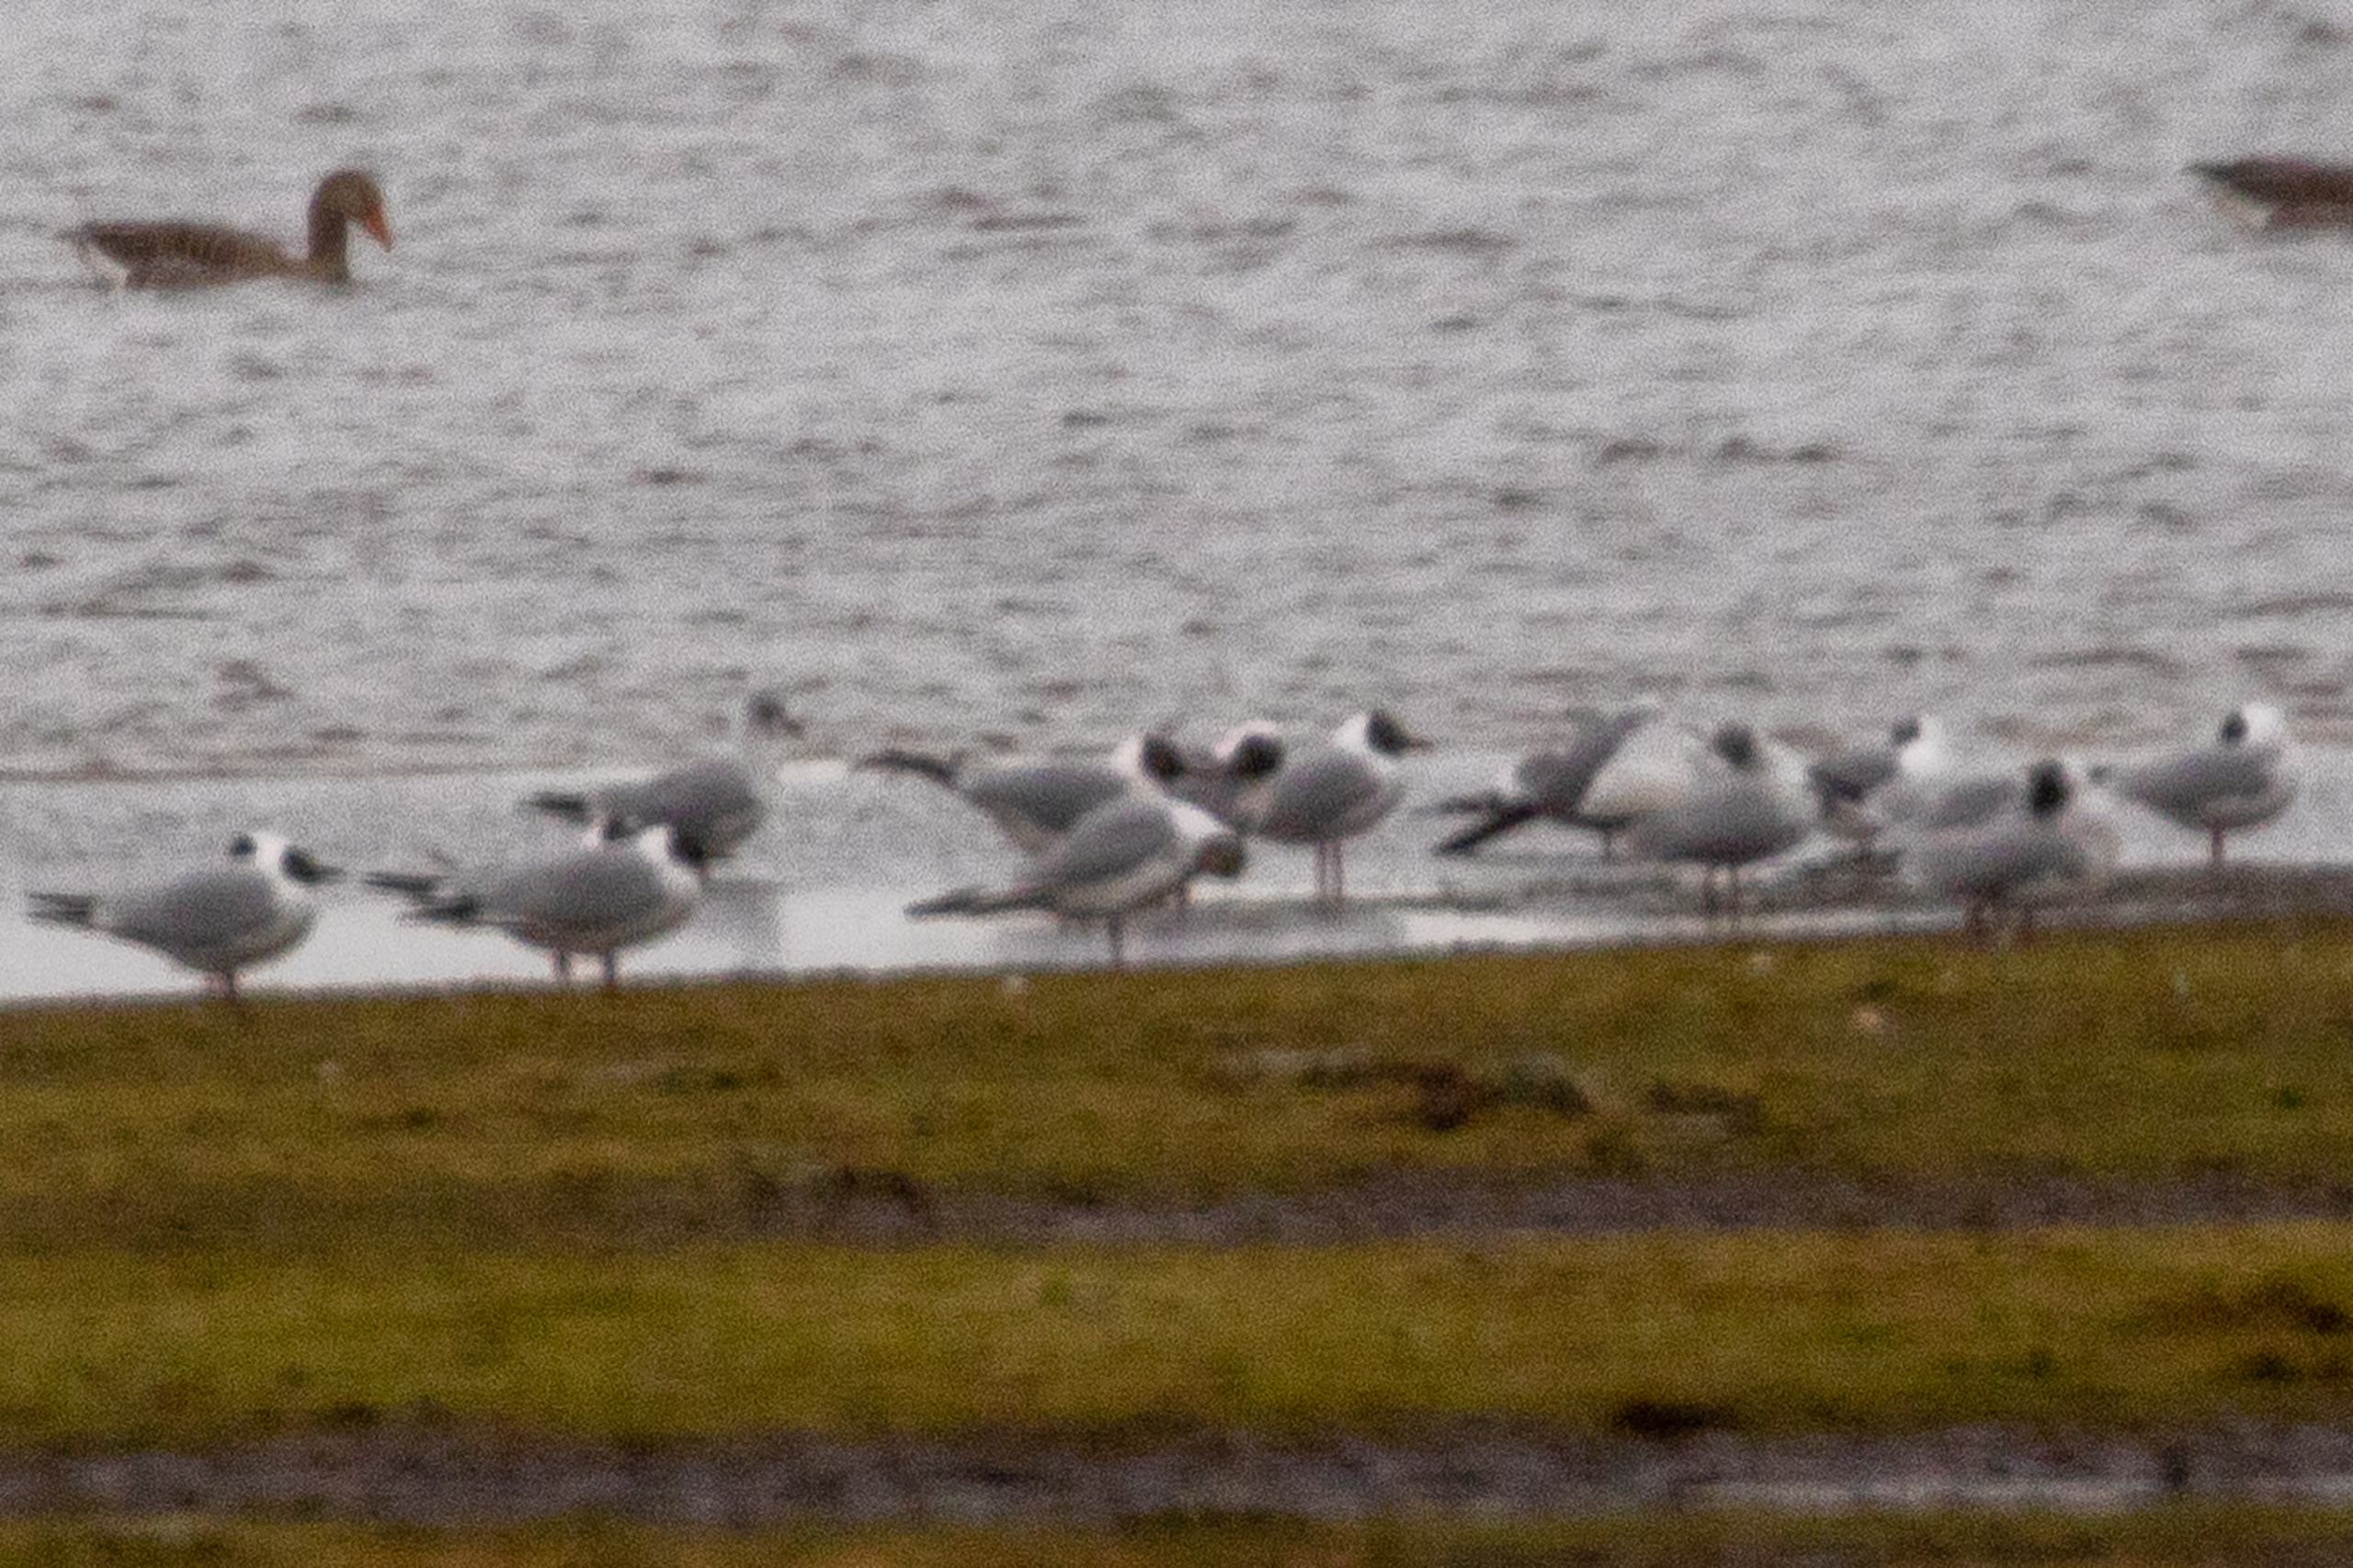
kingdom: Animalia
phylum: Chordata
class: Aves
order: Charadriiformes
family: Laridae
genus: Chroicocephalus
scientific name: Chroicocephalus ridibundus
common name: Hættemåge
